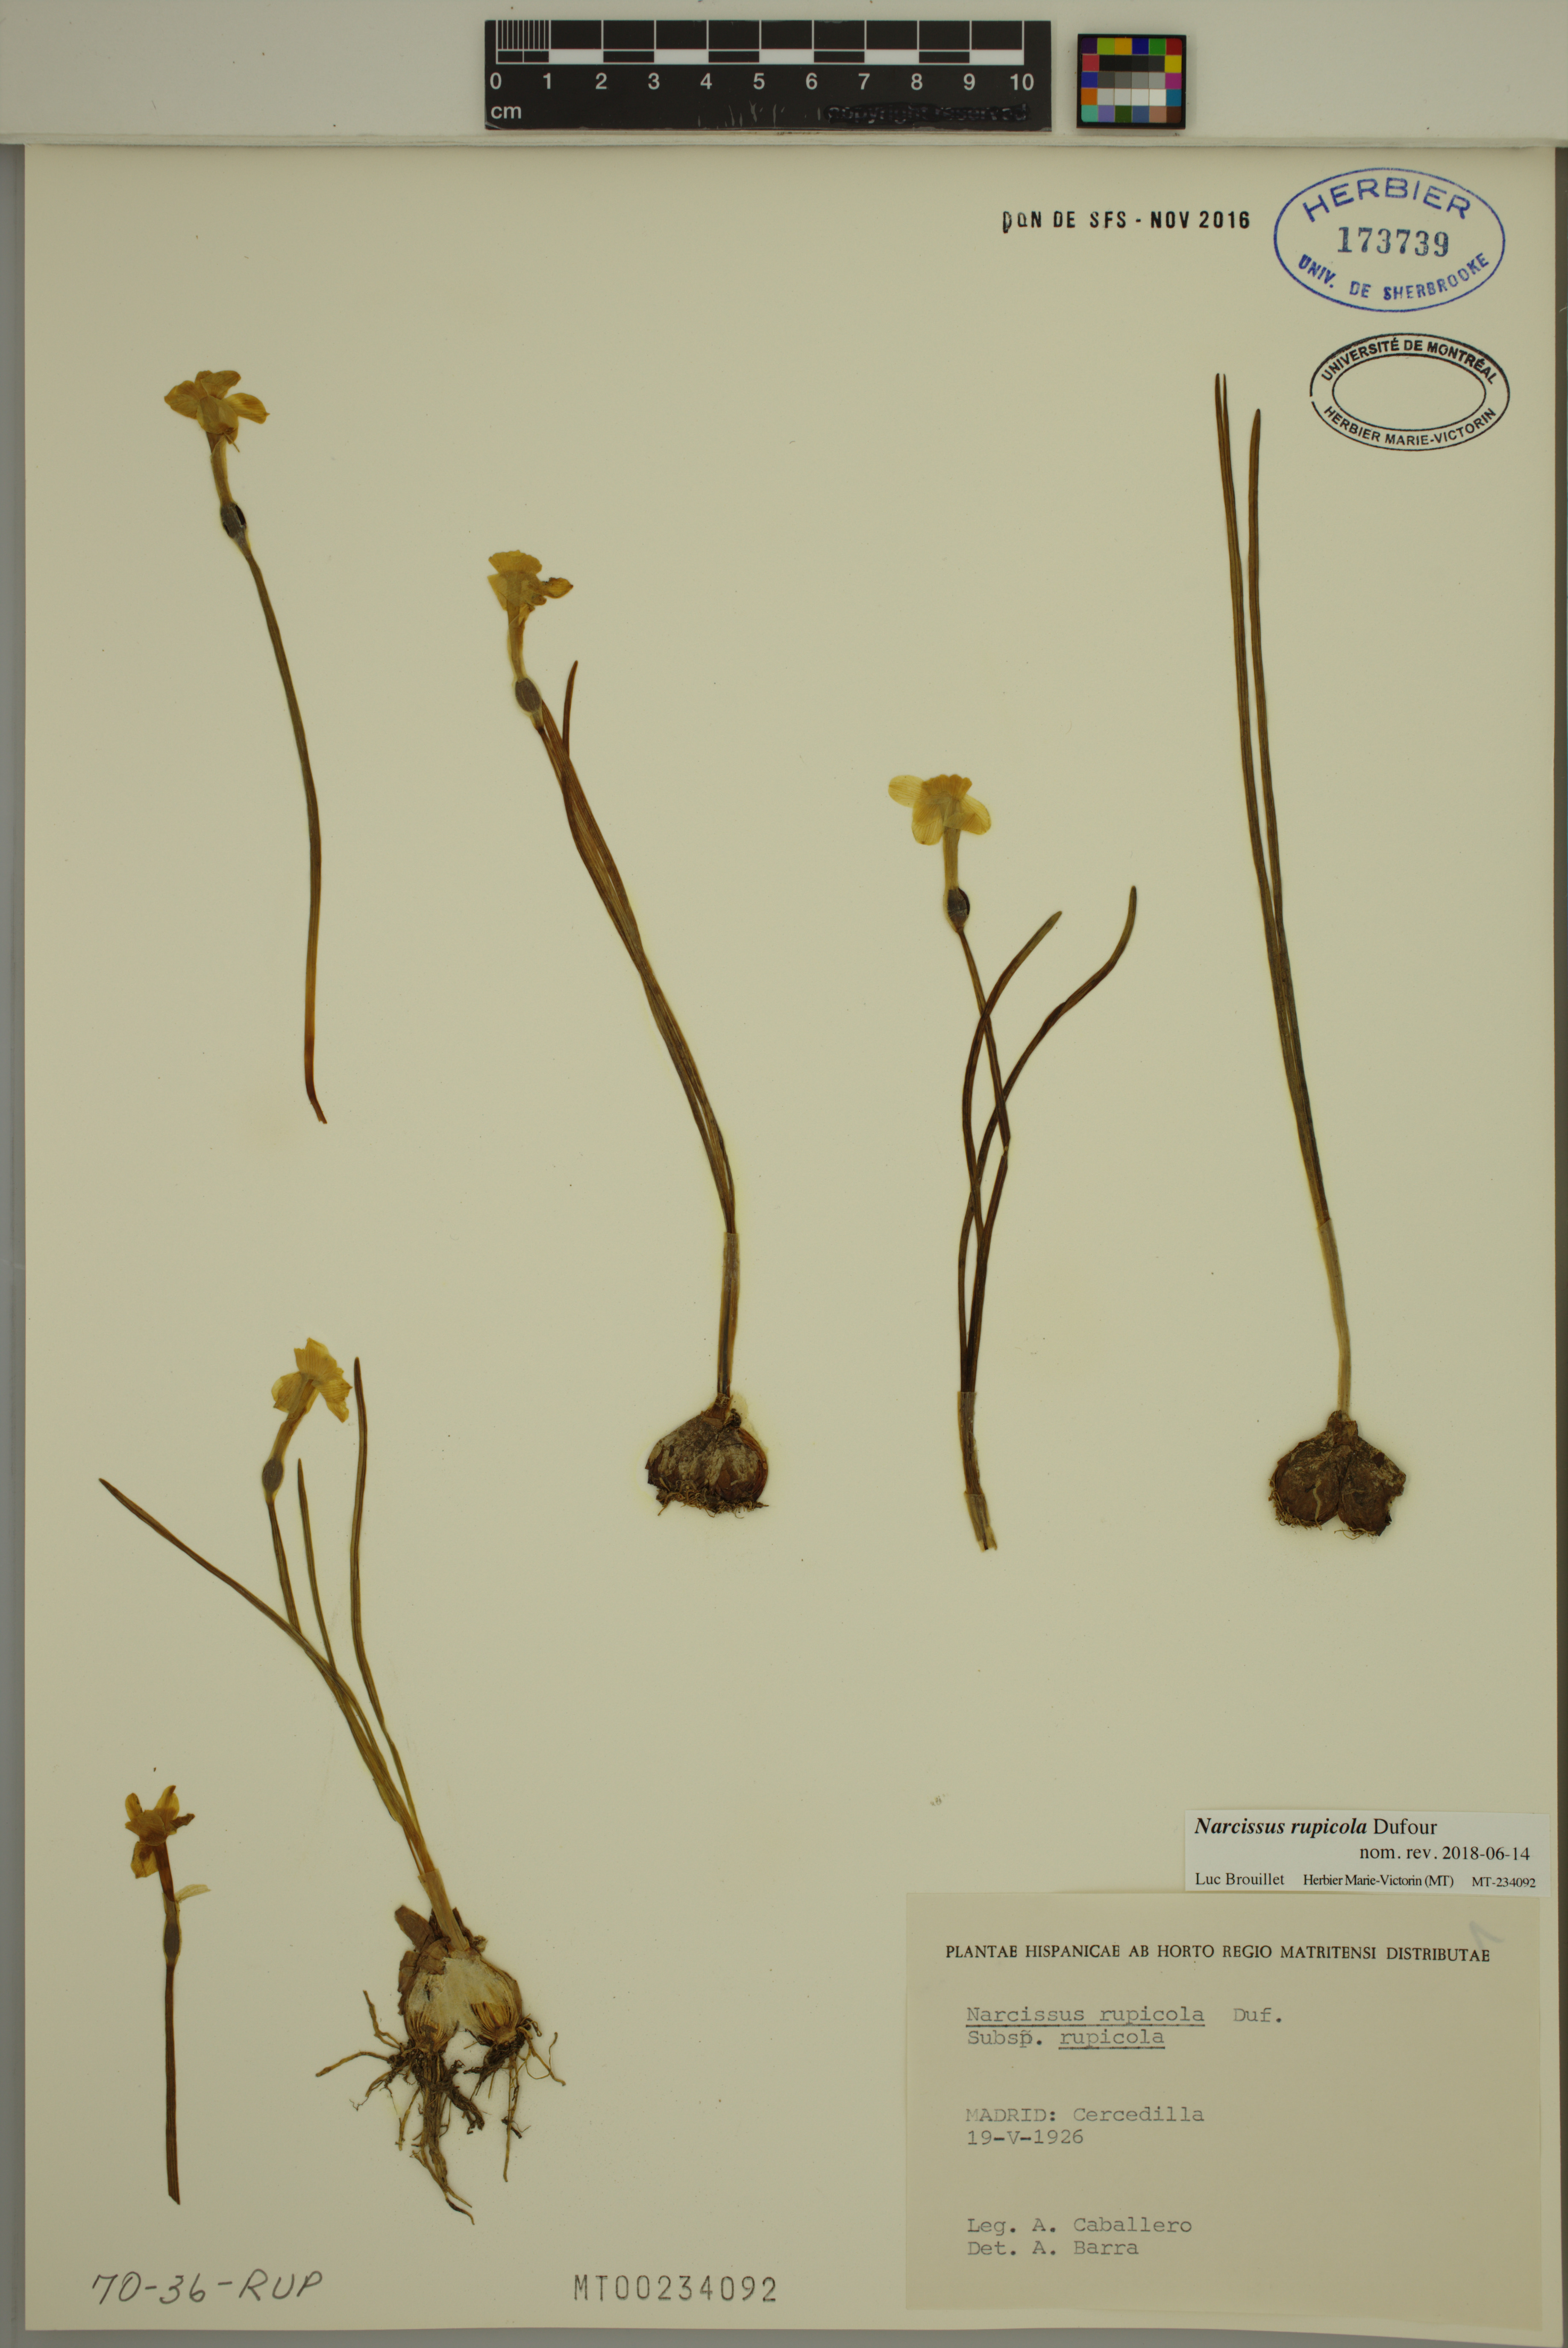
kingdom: Plantae
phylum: Tracheophyta
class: Liliopsida
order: Asparagales
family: Amaryllidaceae
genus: Narcissus
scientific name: Narcissus rupicola
